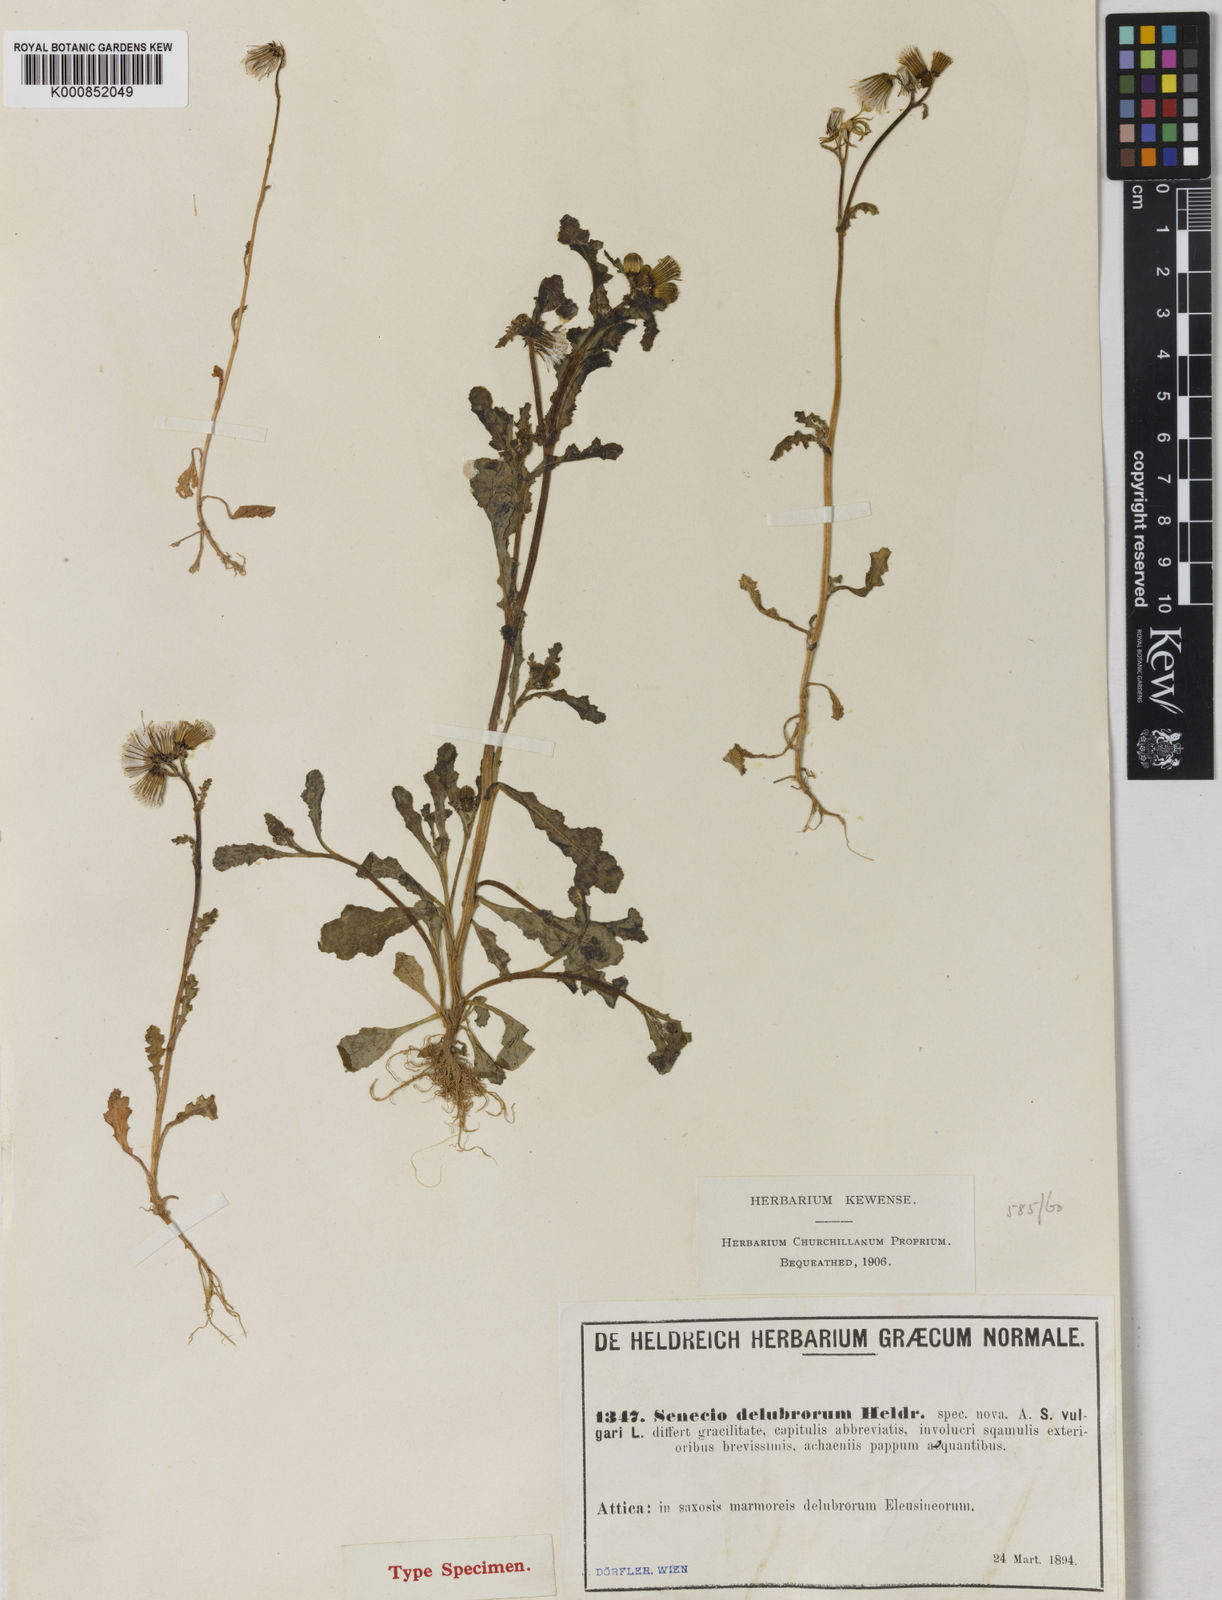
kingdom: Plantae
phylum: Tracheophyta
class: Magnoliopsida
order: Asterales
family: Asteraceae
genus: Senecio
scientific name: Senecio vulgaris
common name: Old-man-in-the-spring
